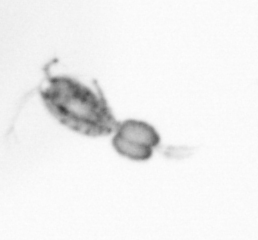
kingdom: Animalia
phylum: Arthropoda
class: Copepoda
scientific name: Copepoda
